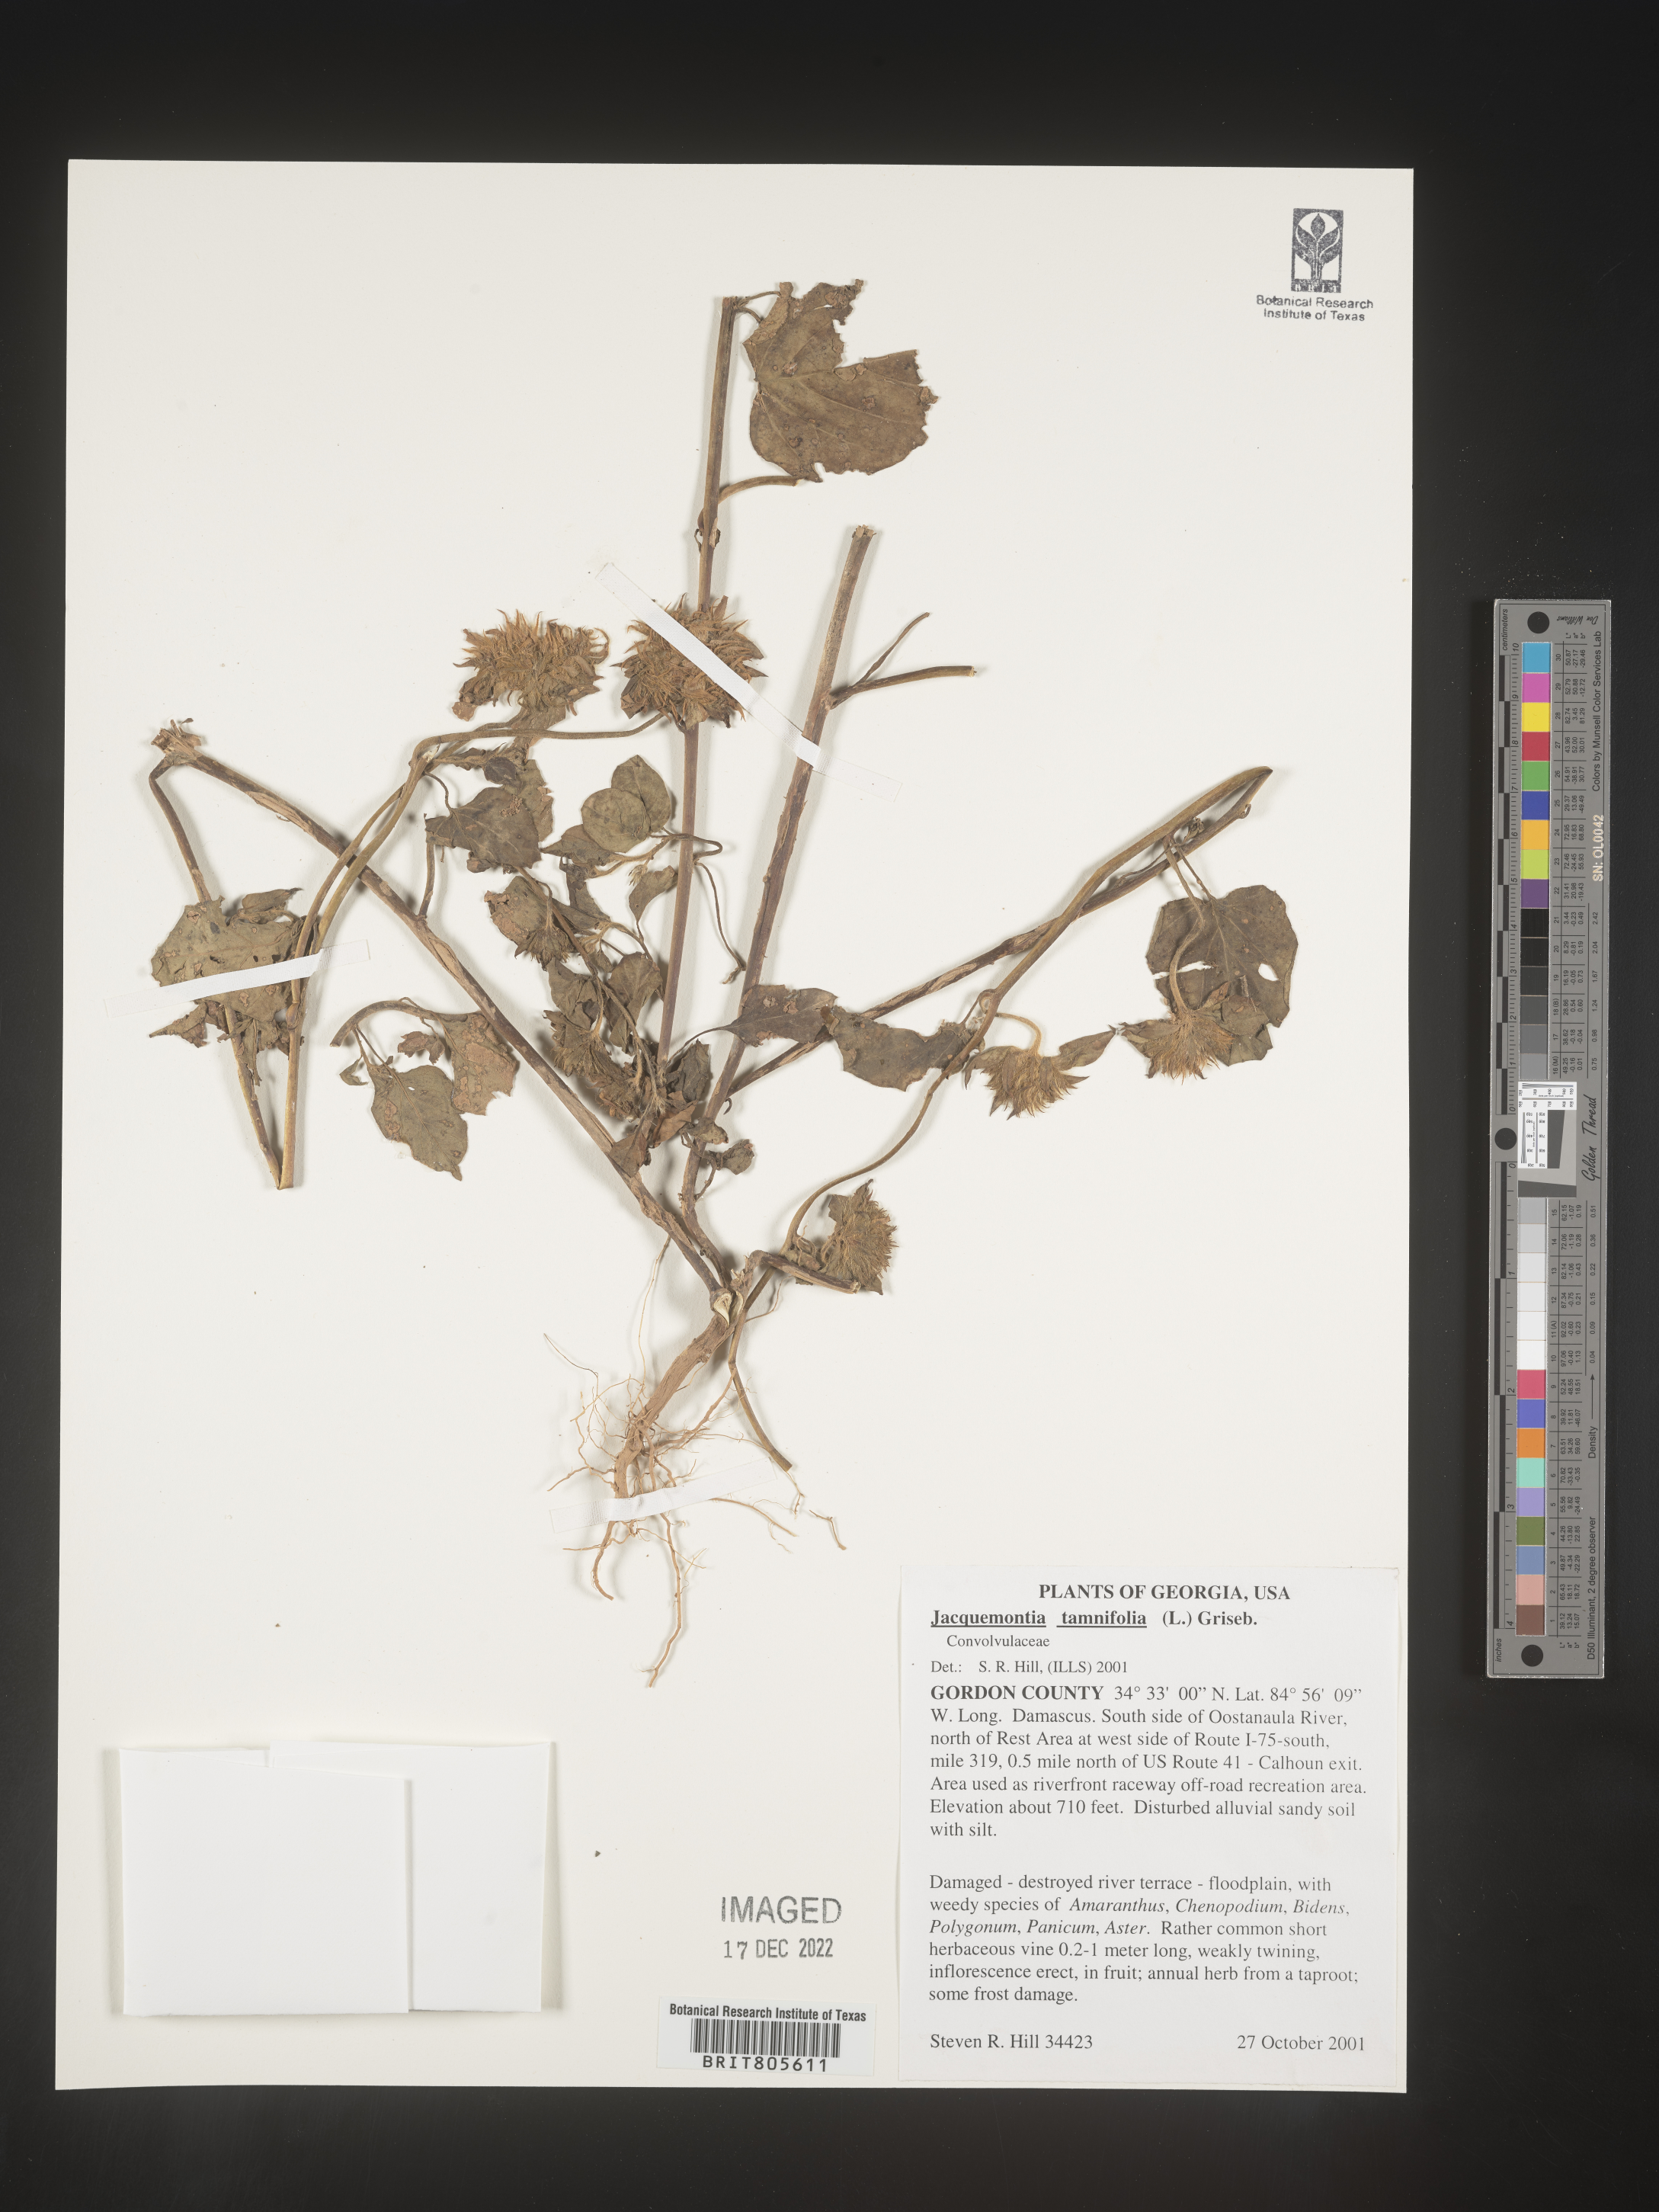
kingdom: Plantae
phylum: Tracheophyta
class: Magnoliopsida
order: Solanales
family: Convolvulaceae
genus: Jacquemontia
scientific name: Jacquemontia tamnifolia
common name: Hairy clustervine
